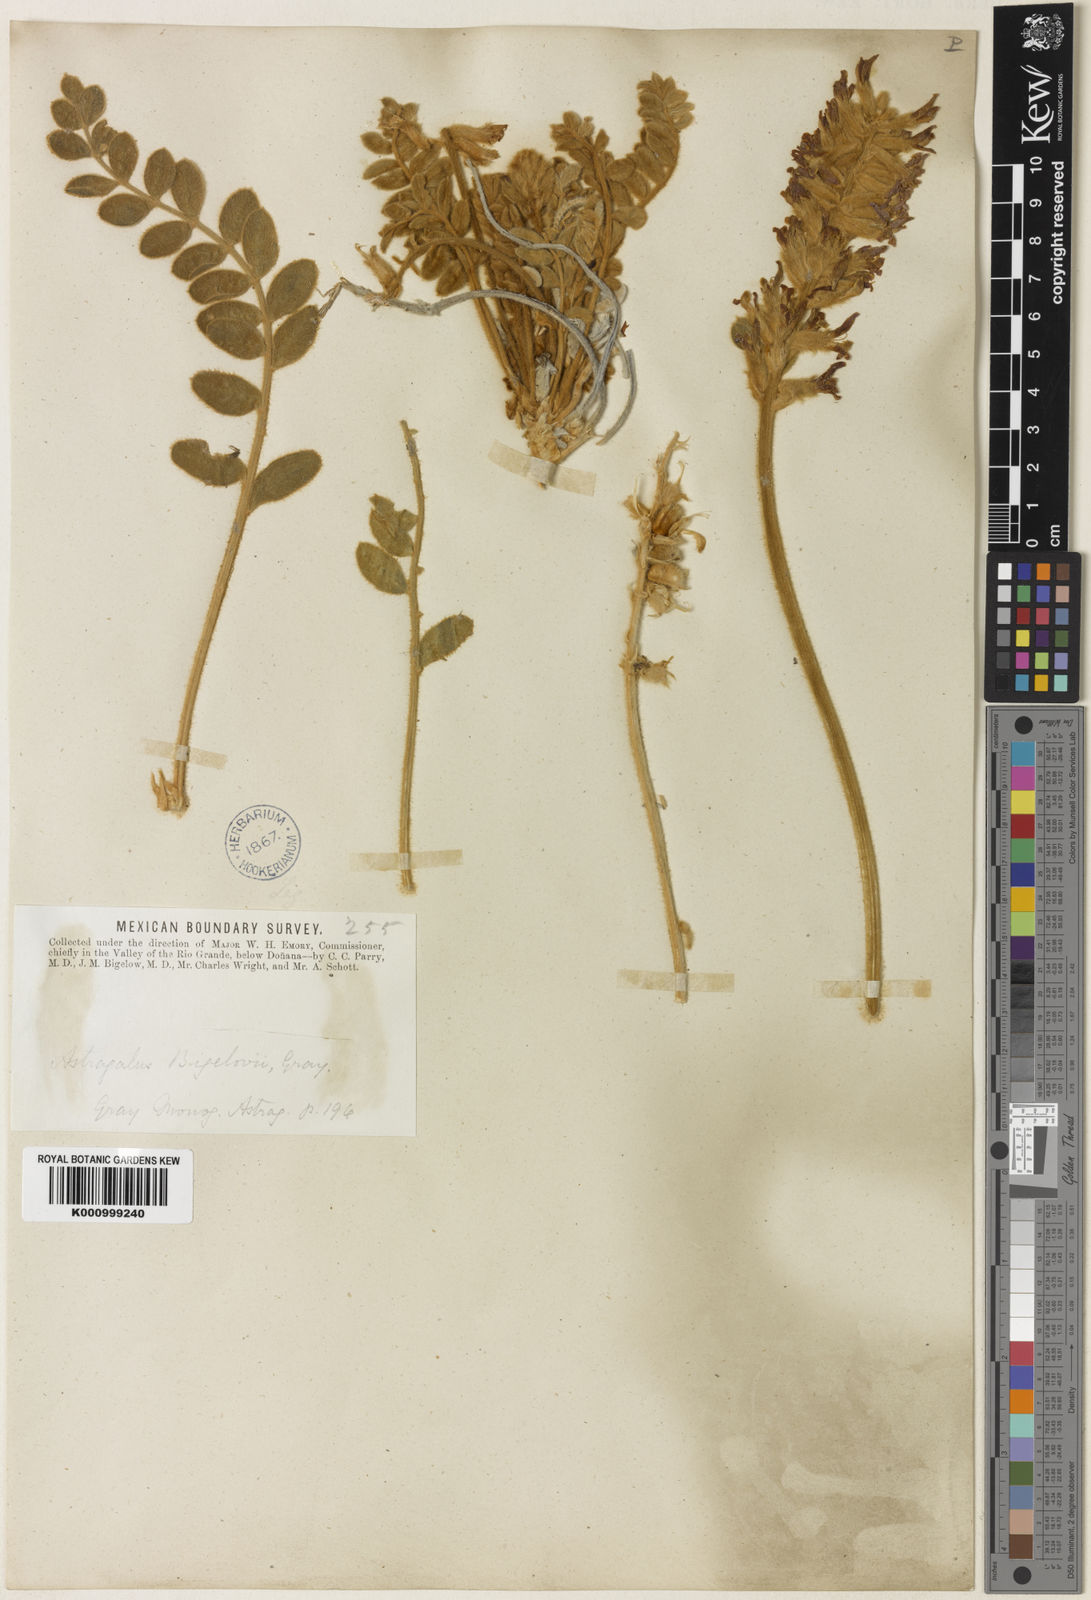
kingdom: Plantae
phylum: Tracheophyta
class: Magnoliopsida
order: Fabales
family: Fabaceae
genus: Astragalus
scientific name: Astragalus
